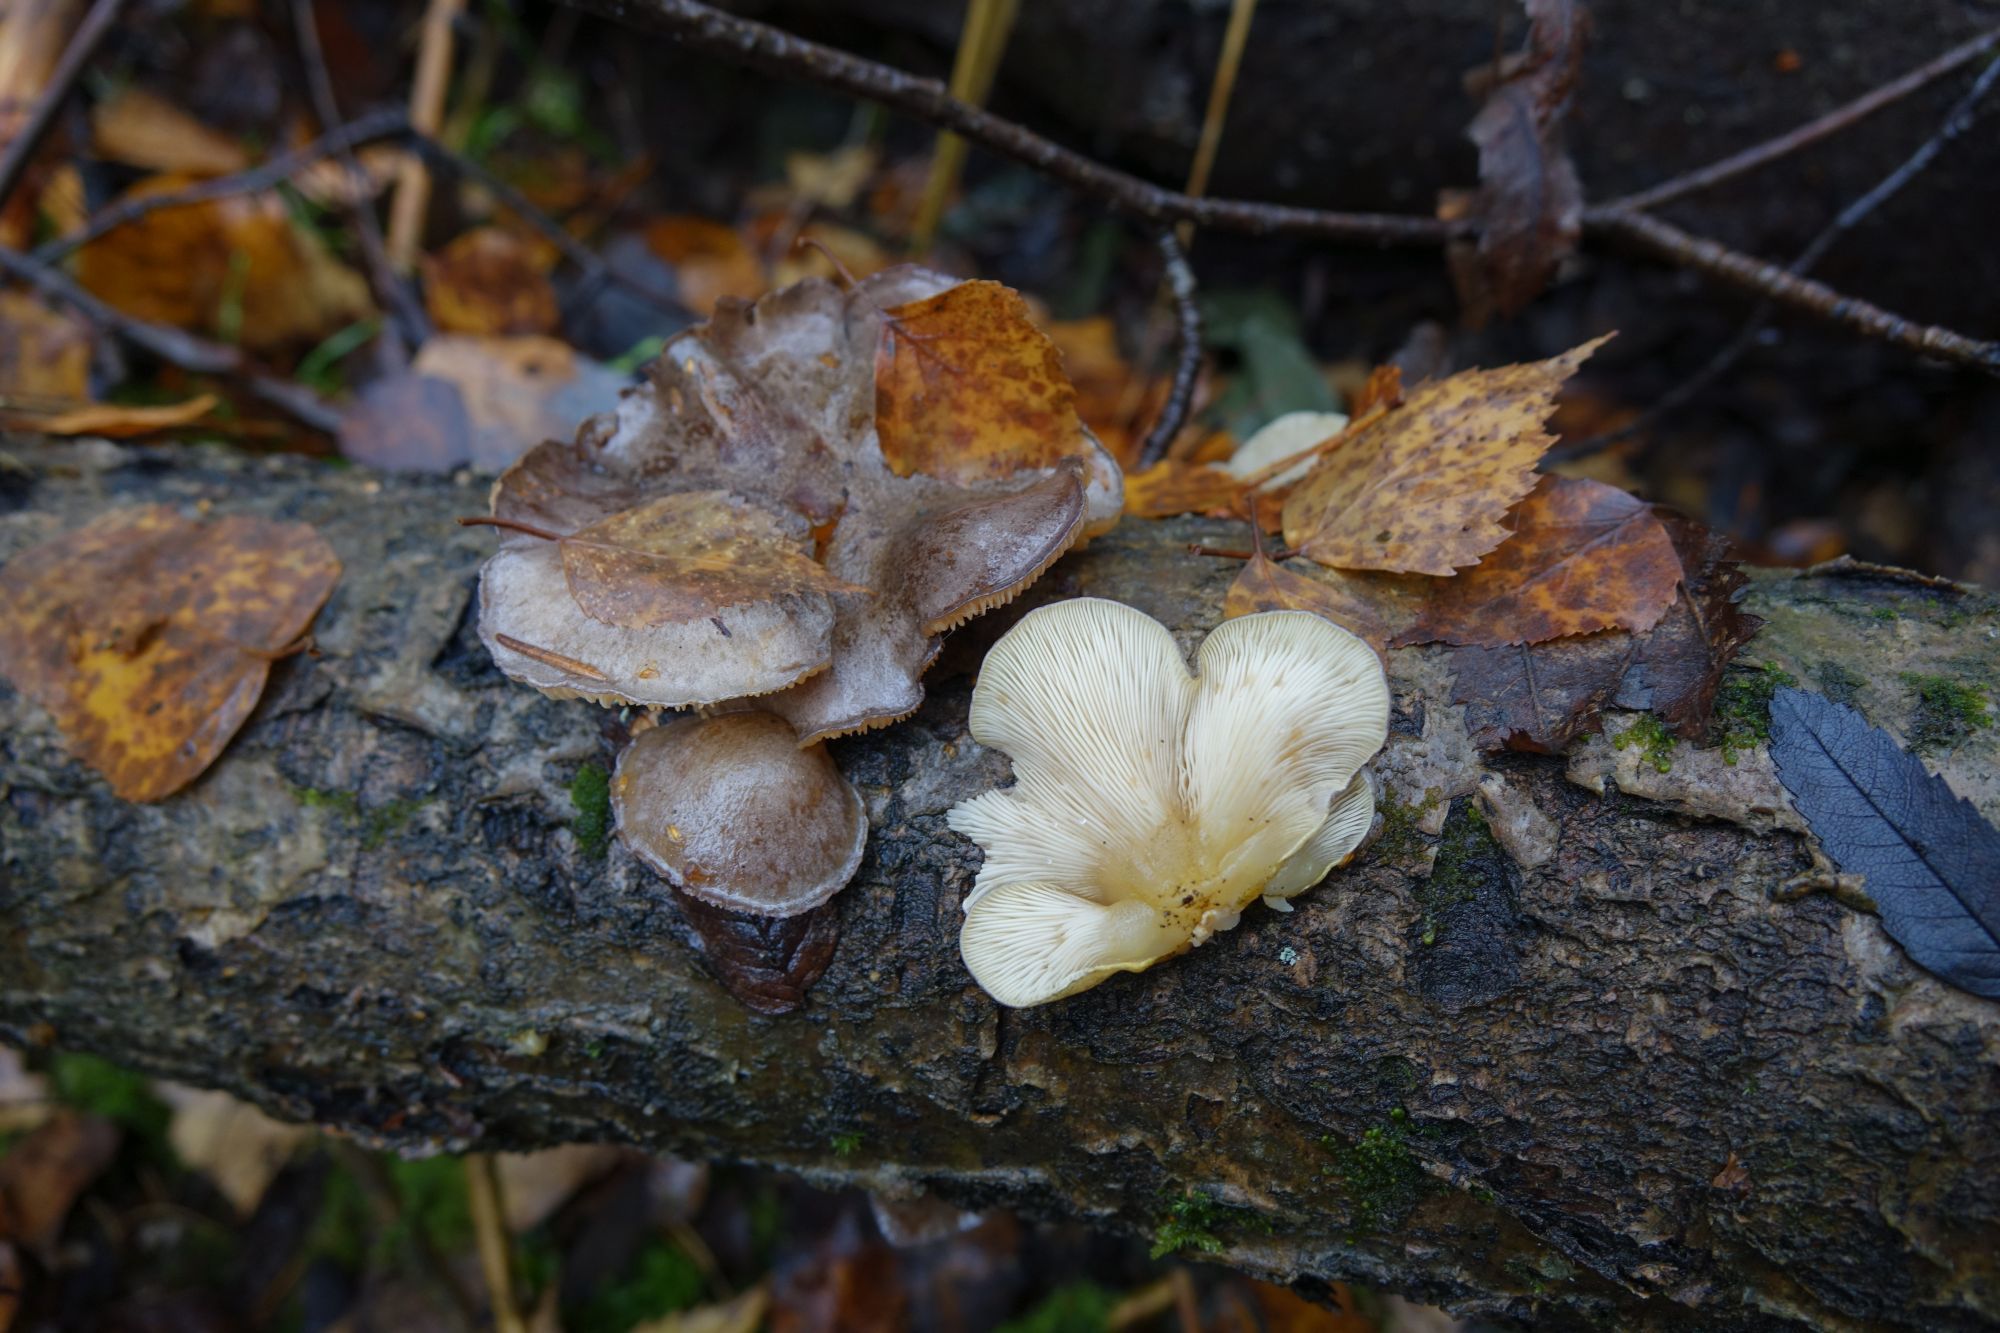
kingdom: Fungi
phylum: Basidiomycota
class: Agaricomycetes
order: Agaricales
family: Sarcomyxaceae
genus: Sarcomyxa
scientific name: Sarcomyxa serotina
